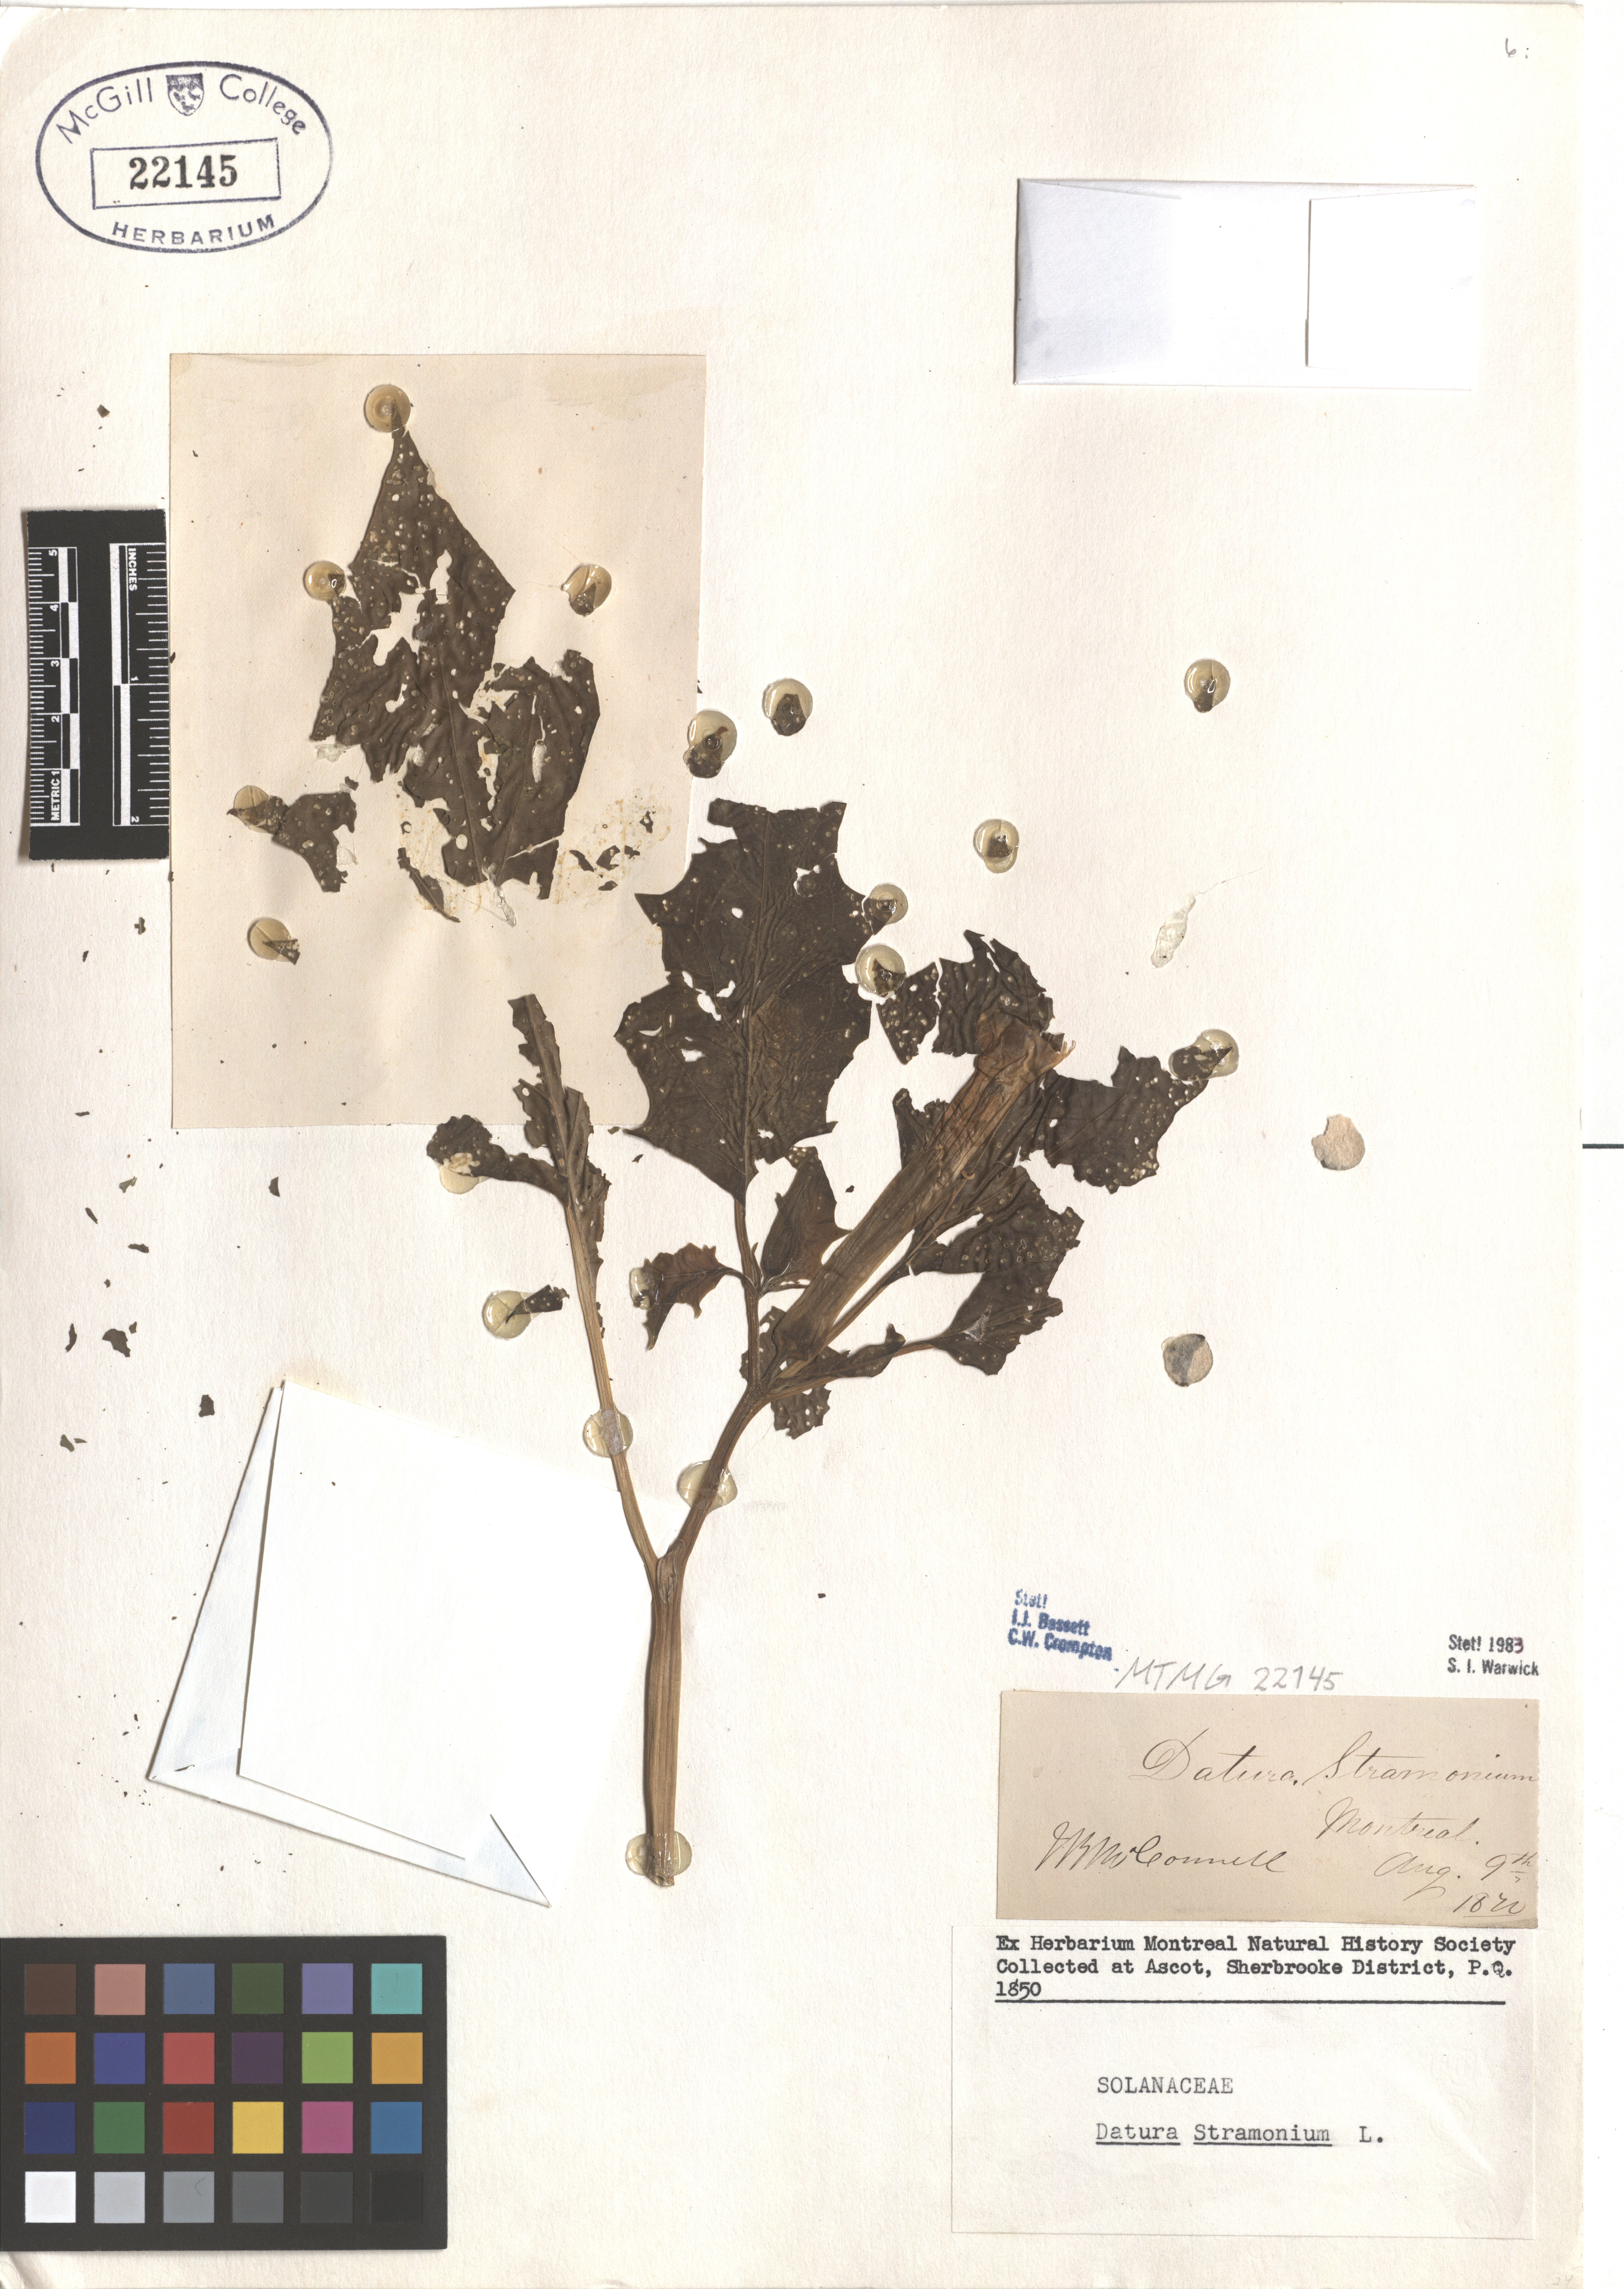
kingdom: Plantae
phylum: Tracheophyta
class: Magnoliopsida
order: Solanales
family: Solanaceae
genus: Datura
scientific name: Datura stramonium
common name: Thorn-apple
